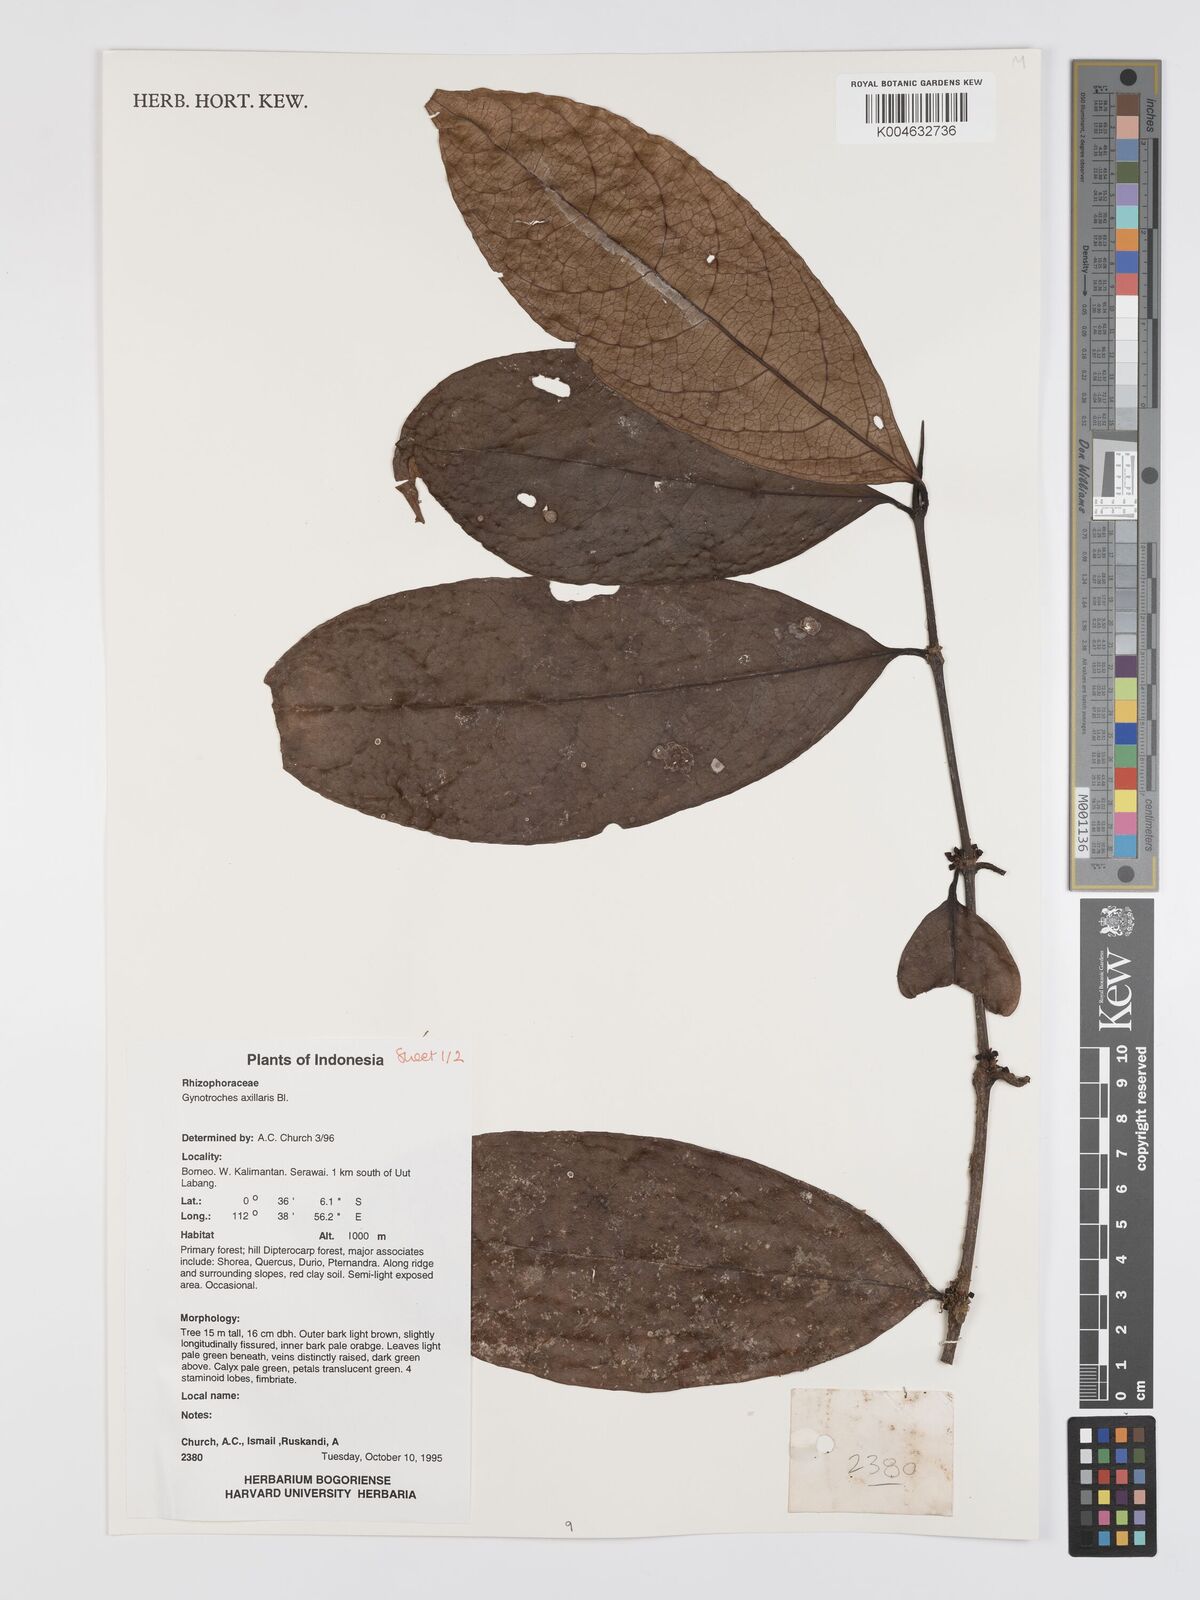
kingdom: Plantae
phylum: Tracheophyta
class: Magnoliopsida
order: Malpighiales
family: Rhizophoraceae
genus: Gynotroches
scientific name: Gynotroches axillaris
